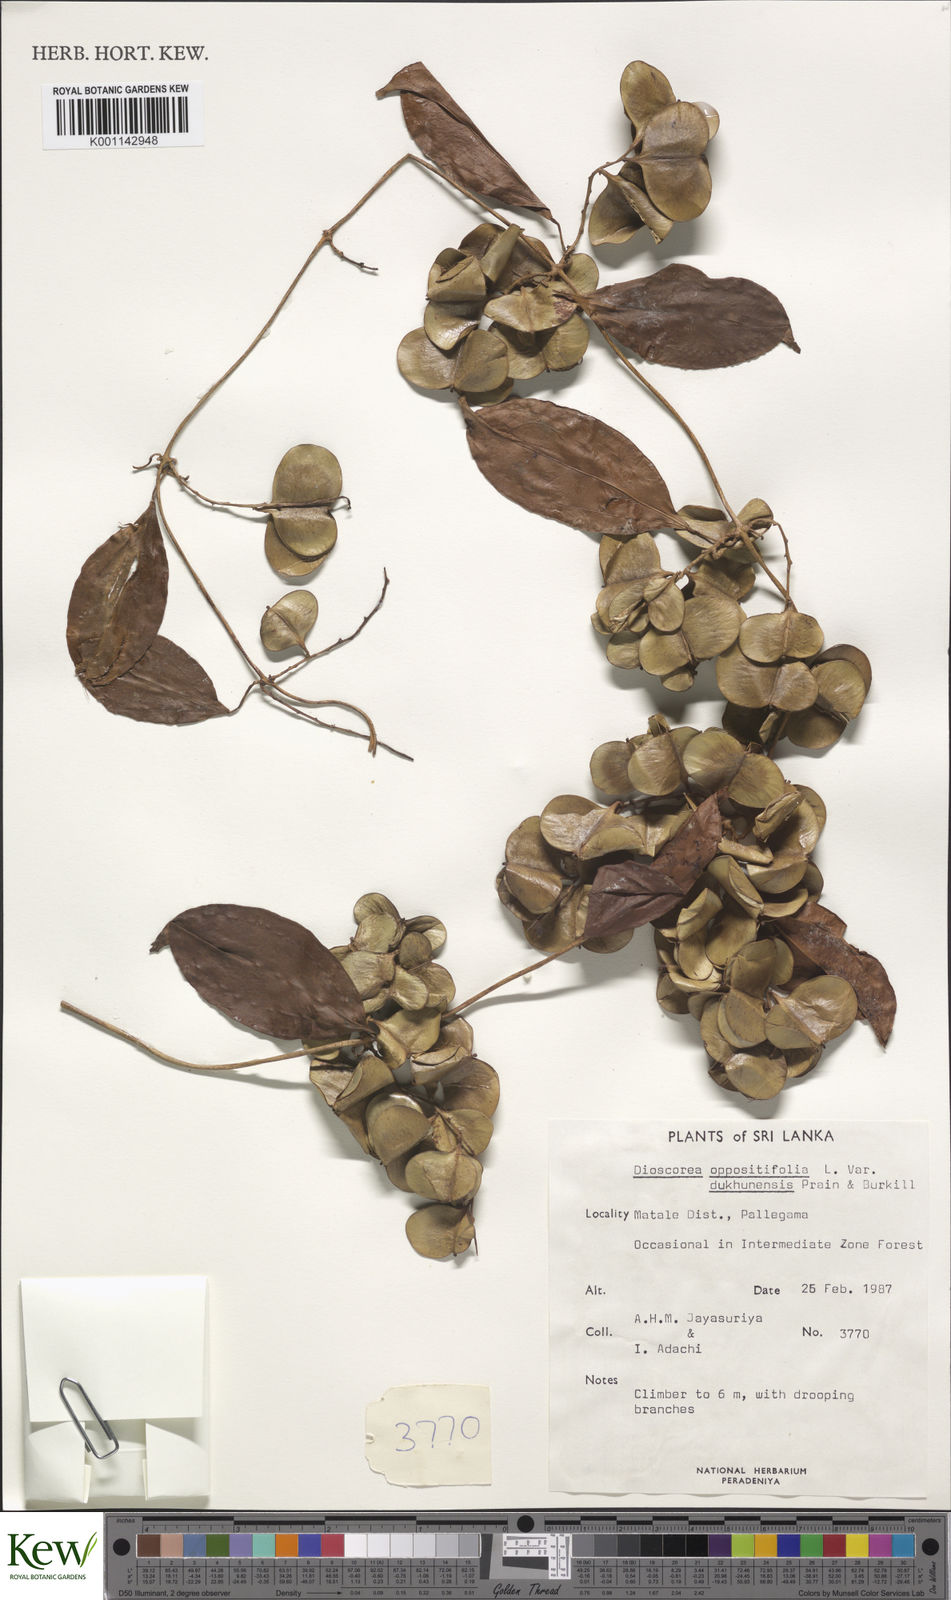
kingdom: Plantae
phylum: Tracheophyta
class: Liliopsida
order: Dioscoreales
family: Dioscoreaceae
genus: Dioscorea
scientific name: Dioscorea oppositifolia
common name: Chinese yam
